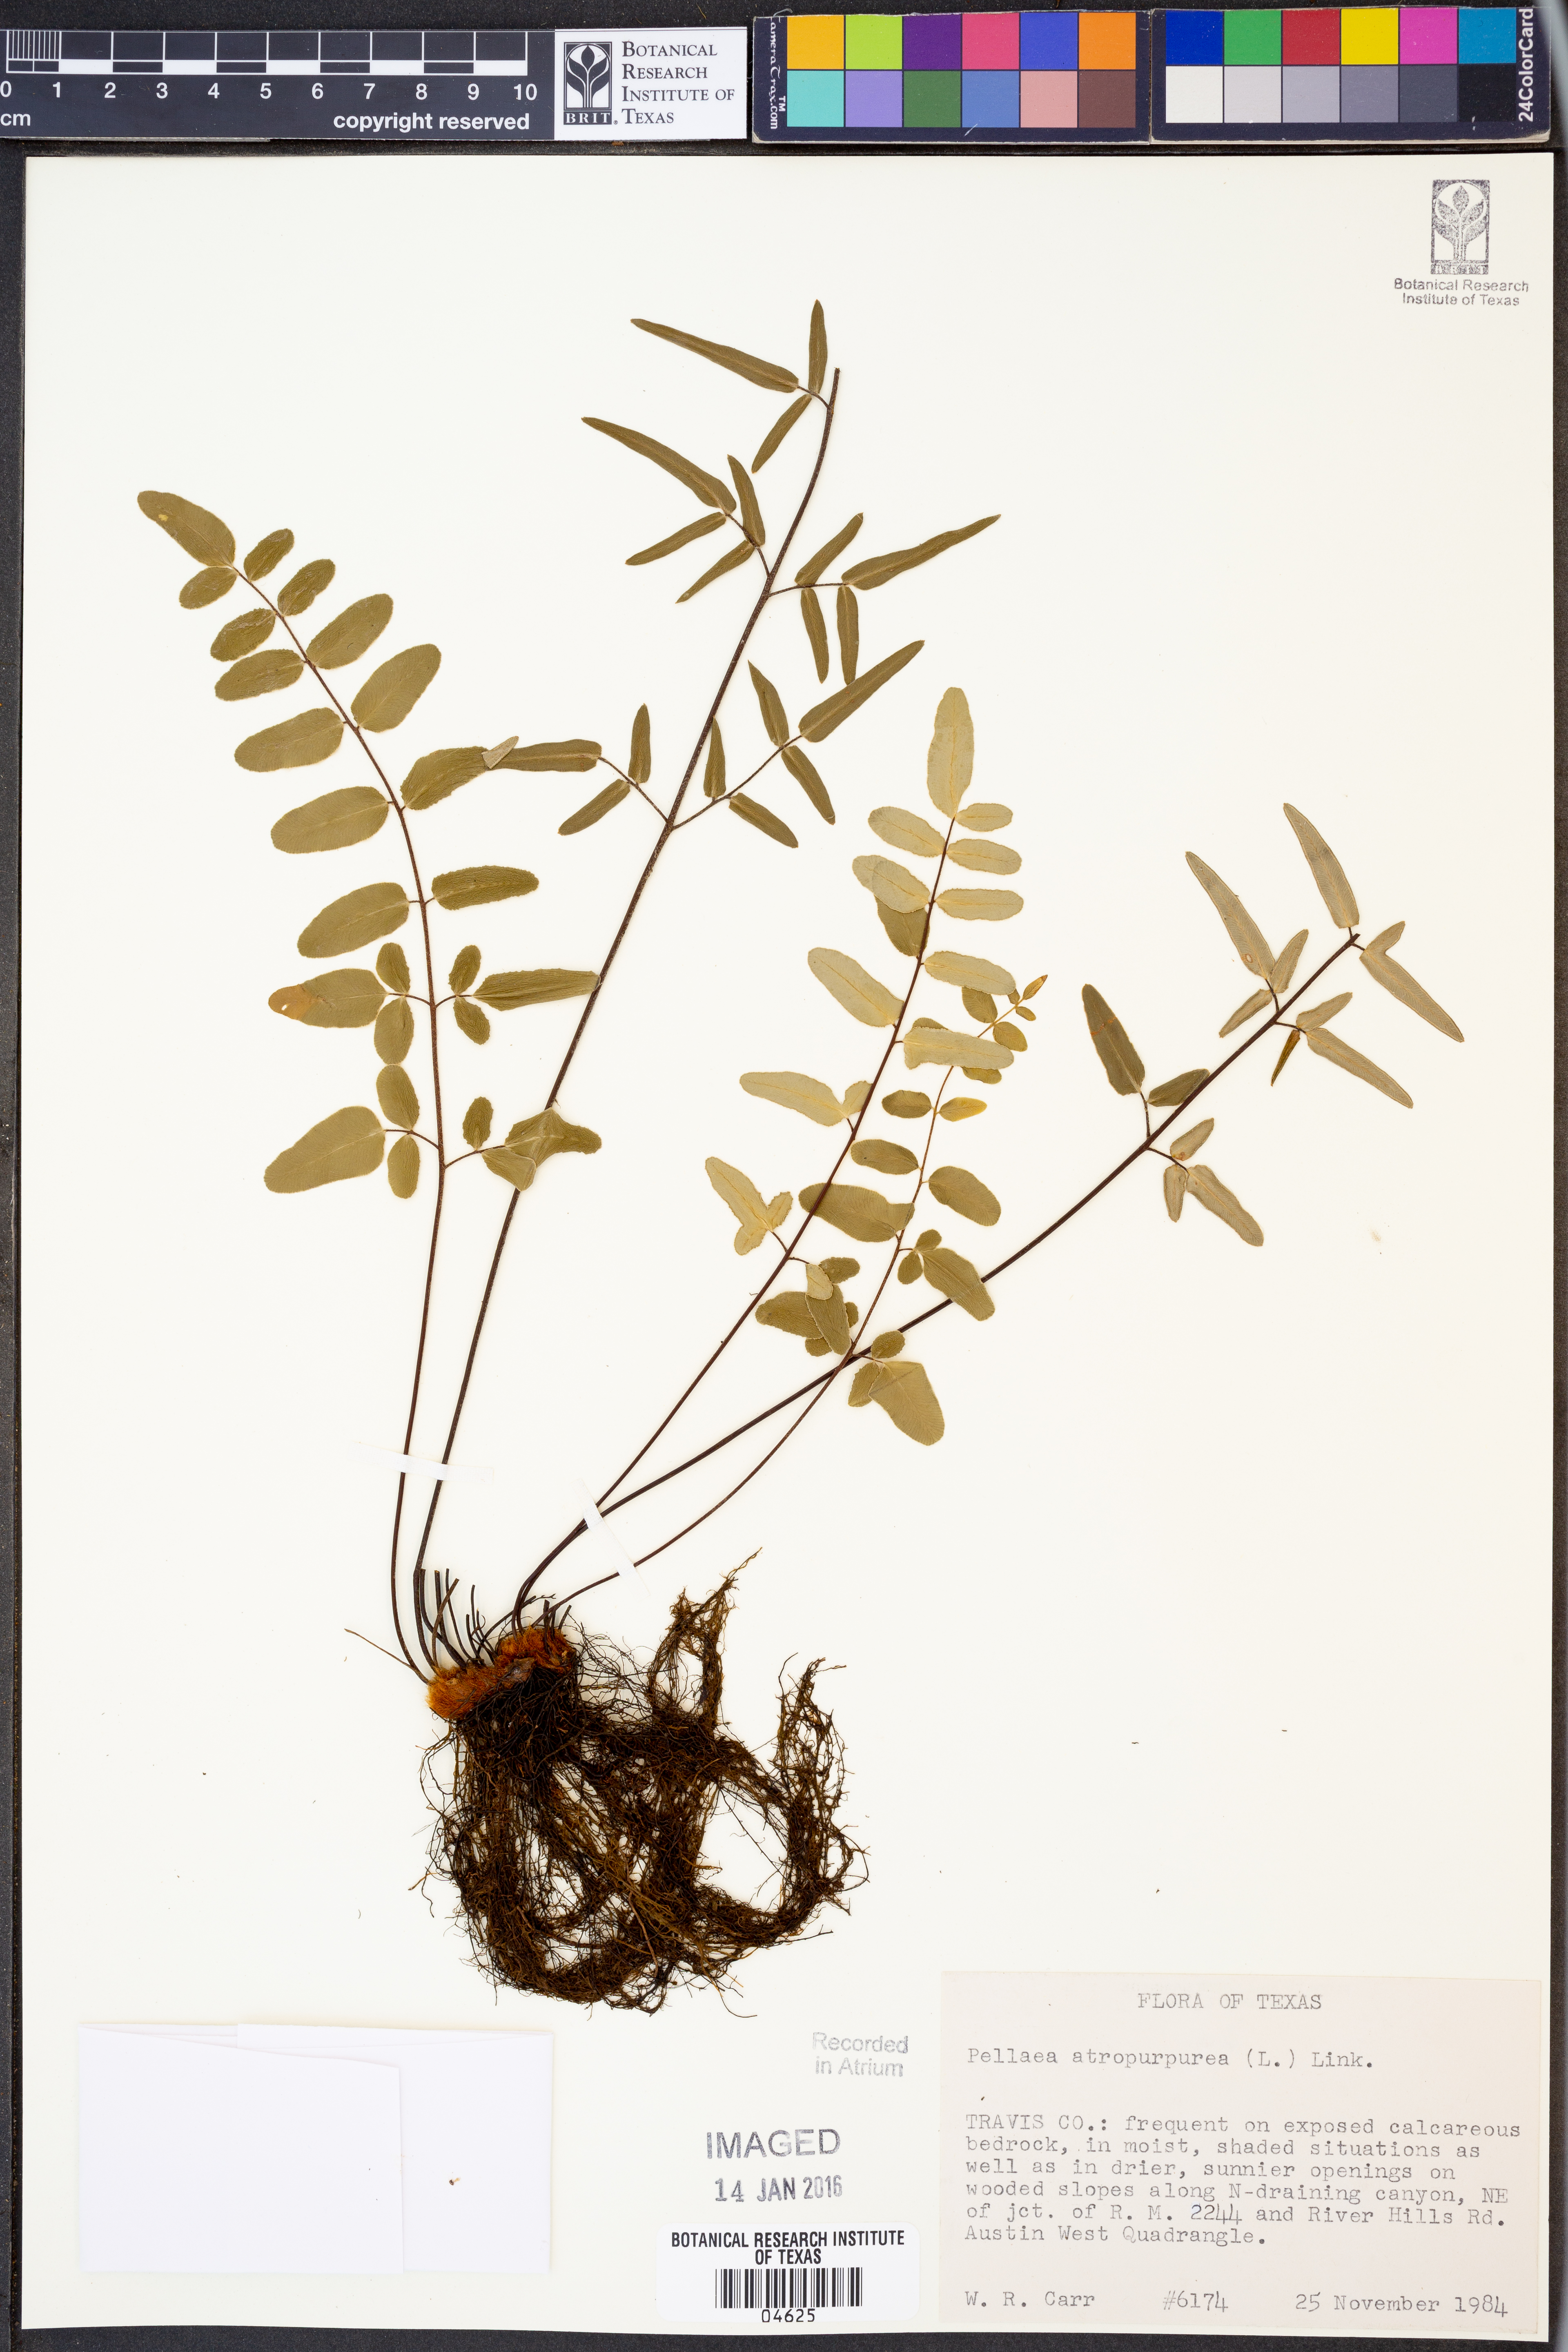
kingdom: Plantae
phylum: Tracheophyta
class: Polypodiopsida
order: Polypodiales
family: Pteridaceae
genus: Pellaea
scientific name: Pellaea atropurpurea
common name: Hairy cliffbrake
